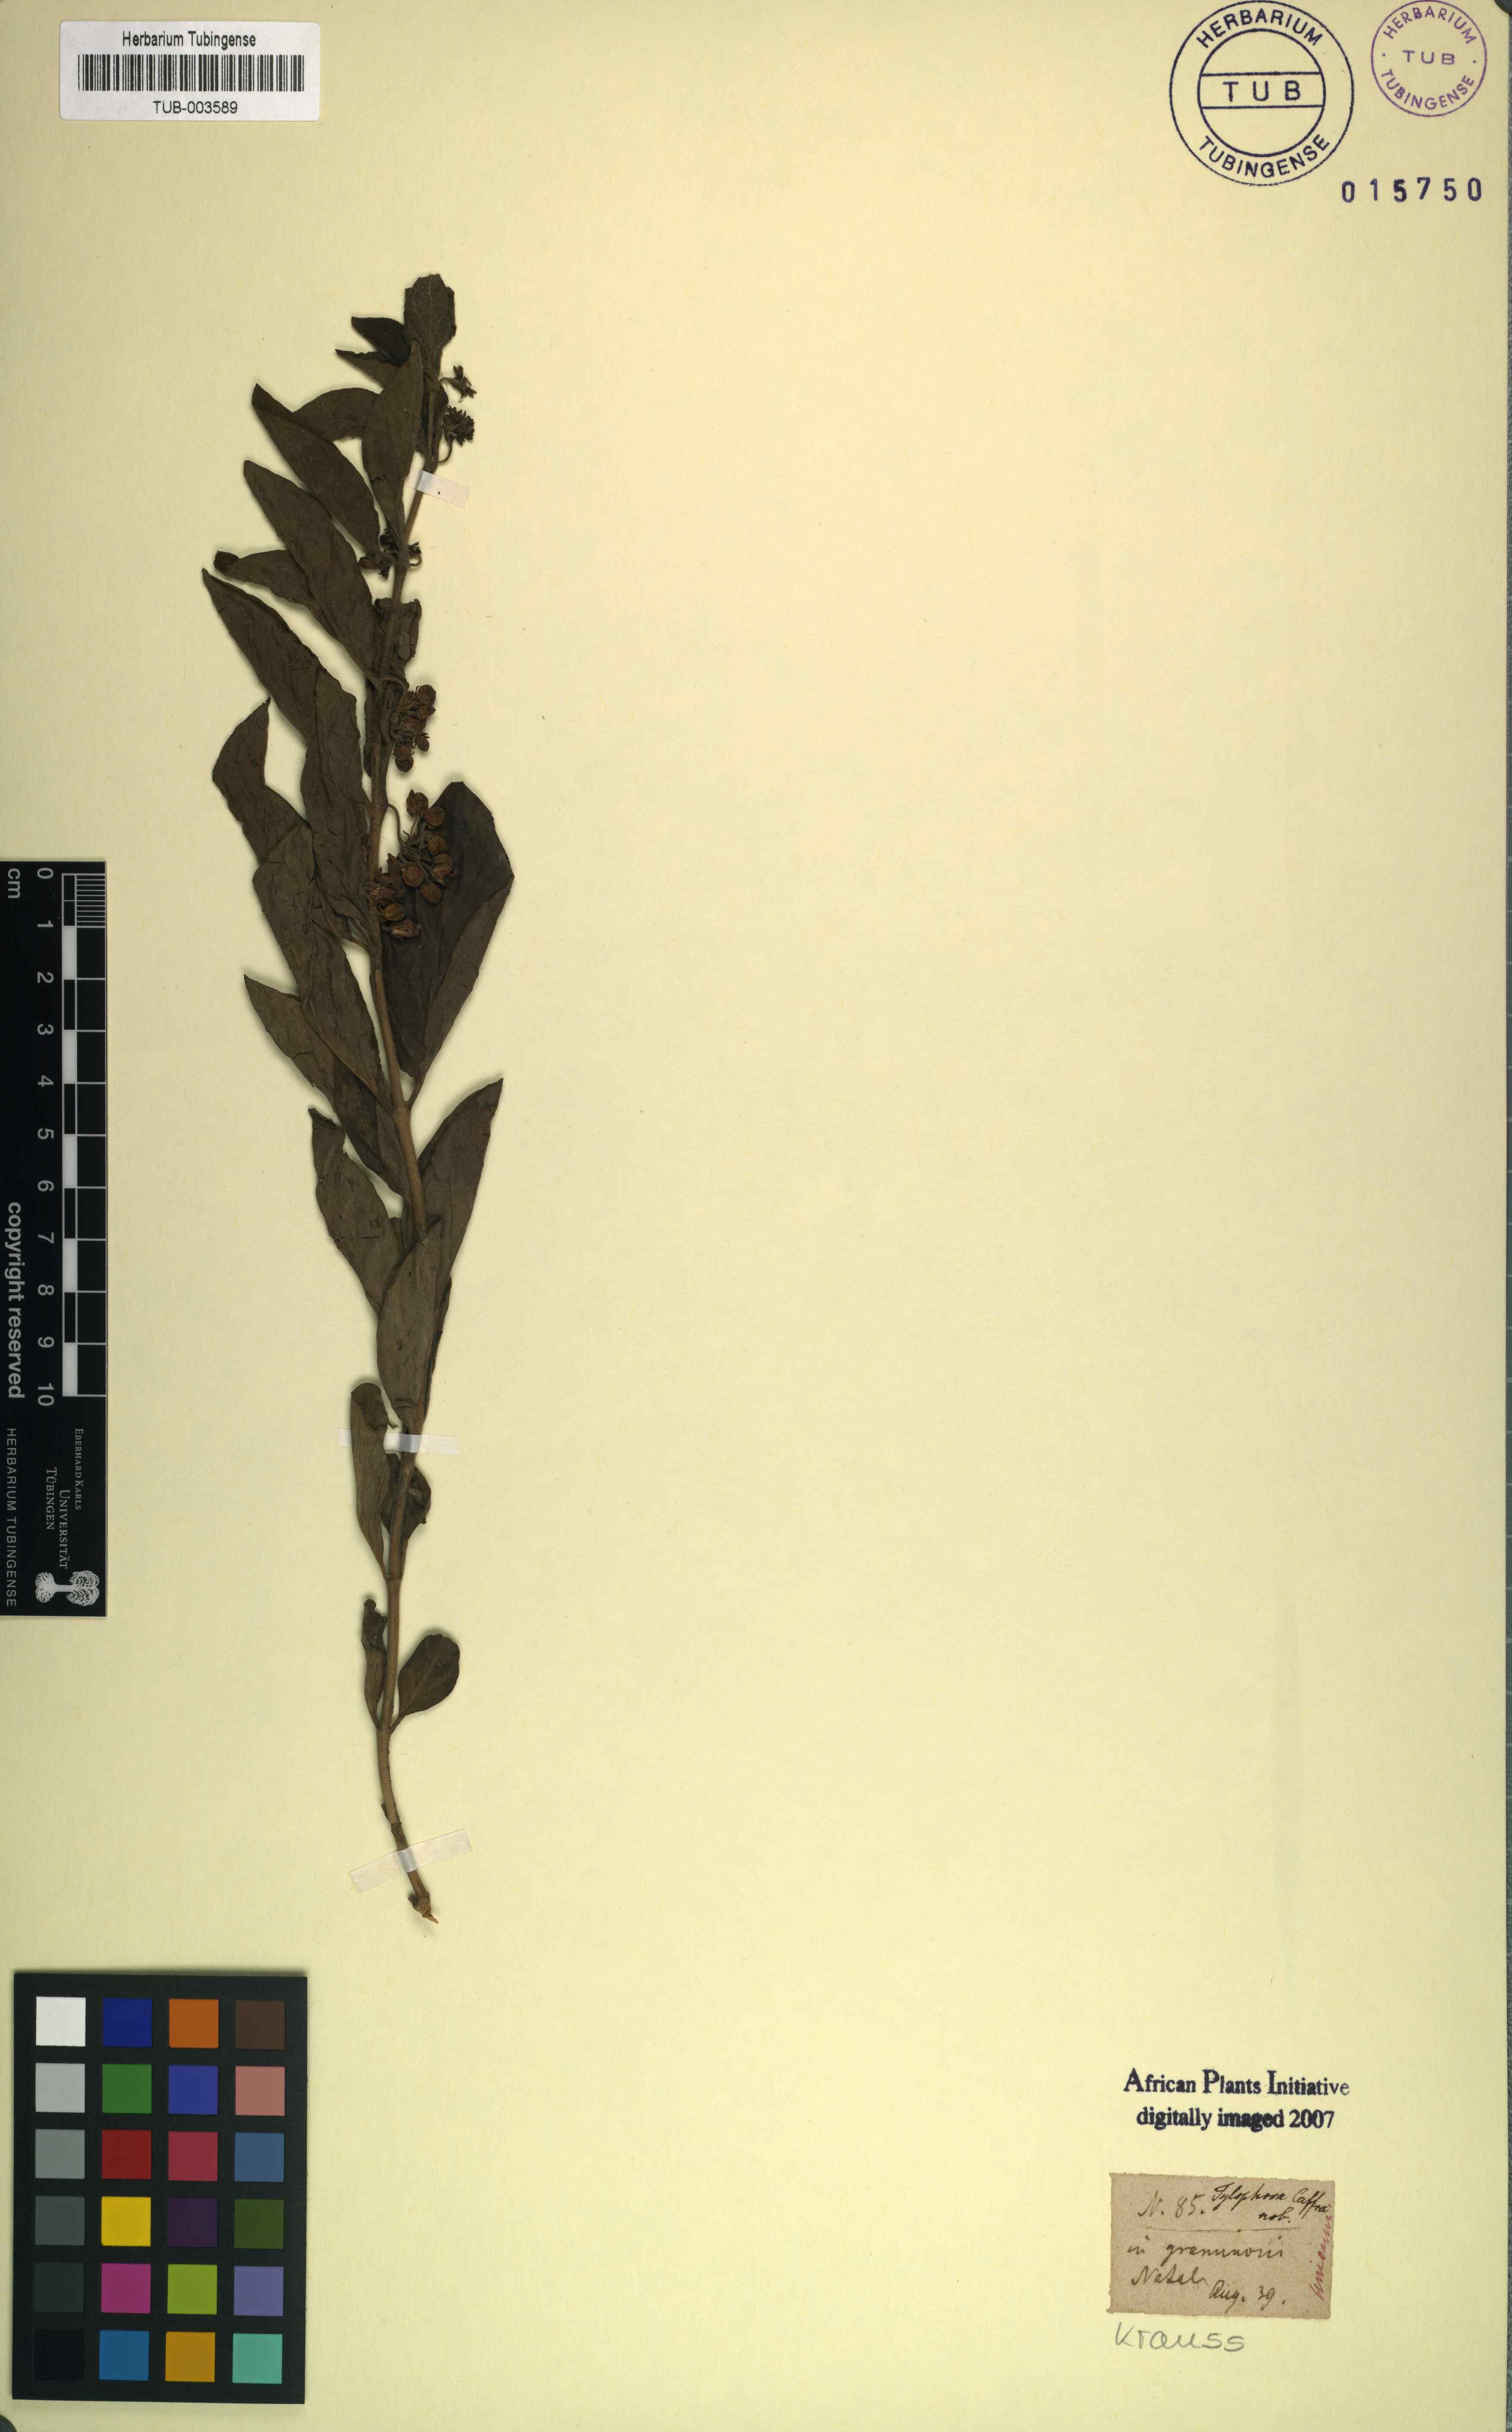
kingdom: Plantae
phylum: Tracheophyta
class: Magnoliopsida
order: Gentianales
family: Apocynaceae
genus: Vincetoxicum
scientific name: Vincetoxicum caffrum
